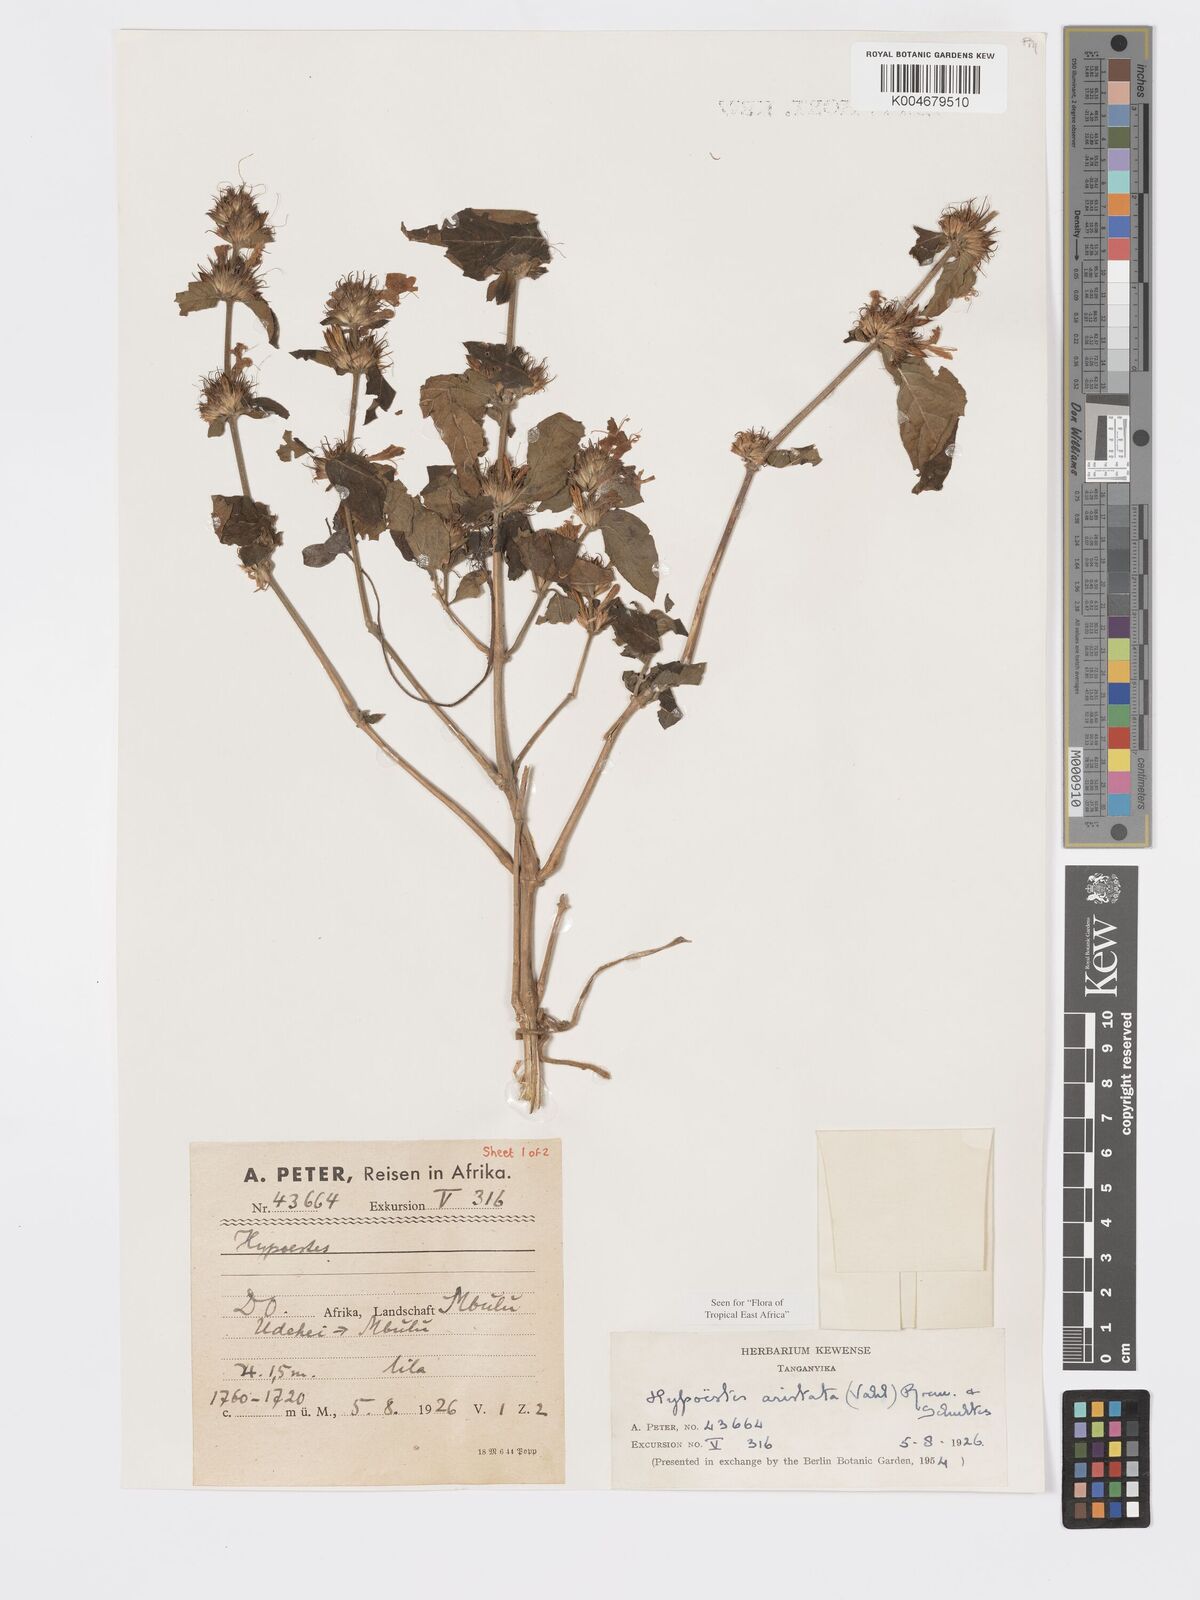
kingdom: Plantae
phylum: Tracheophyta
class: Magnoliopsida
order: Lamiales
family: Acanthaceae
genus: Hypoestes
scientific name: Hypoestes aristata
